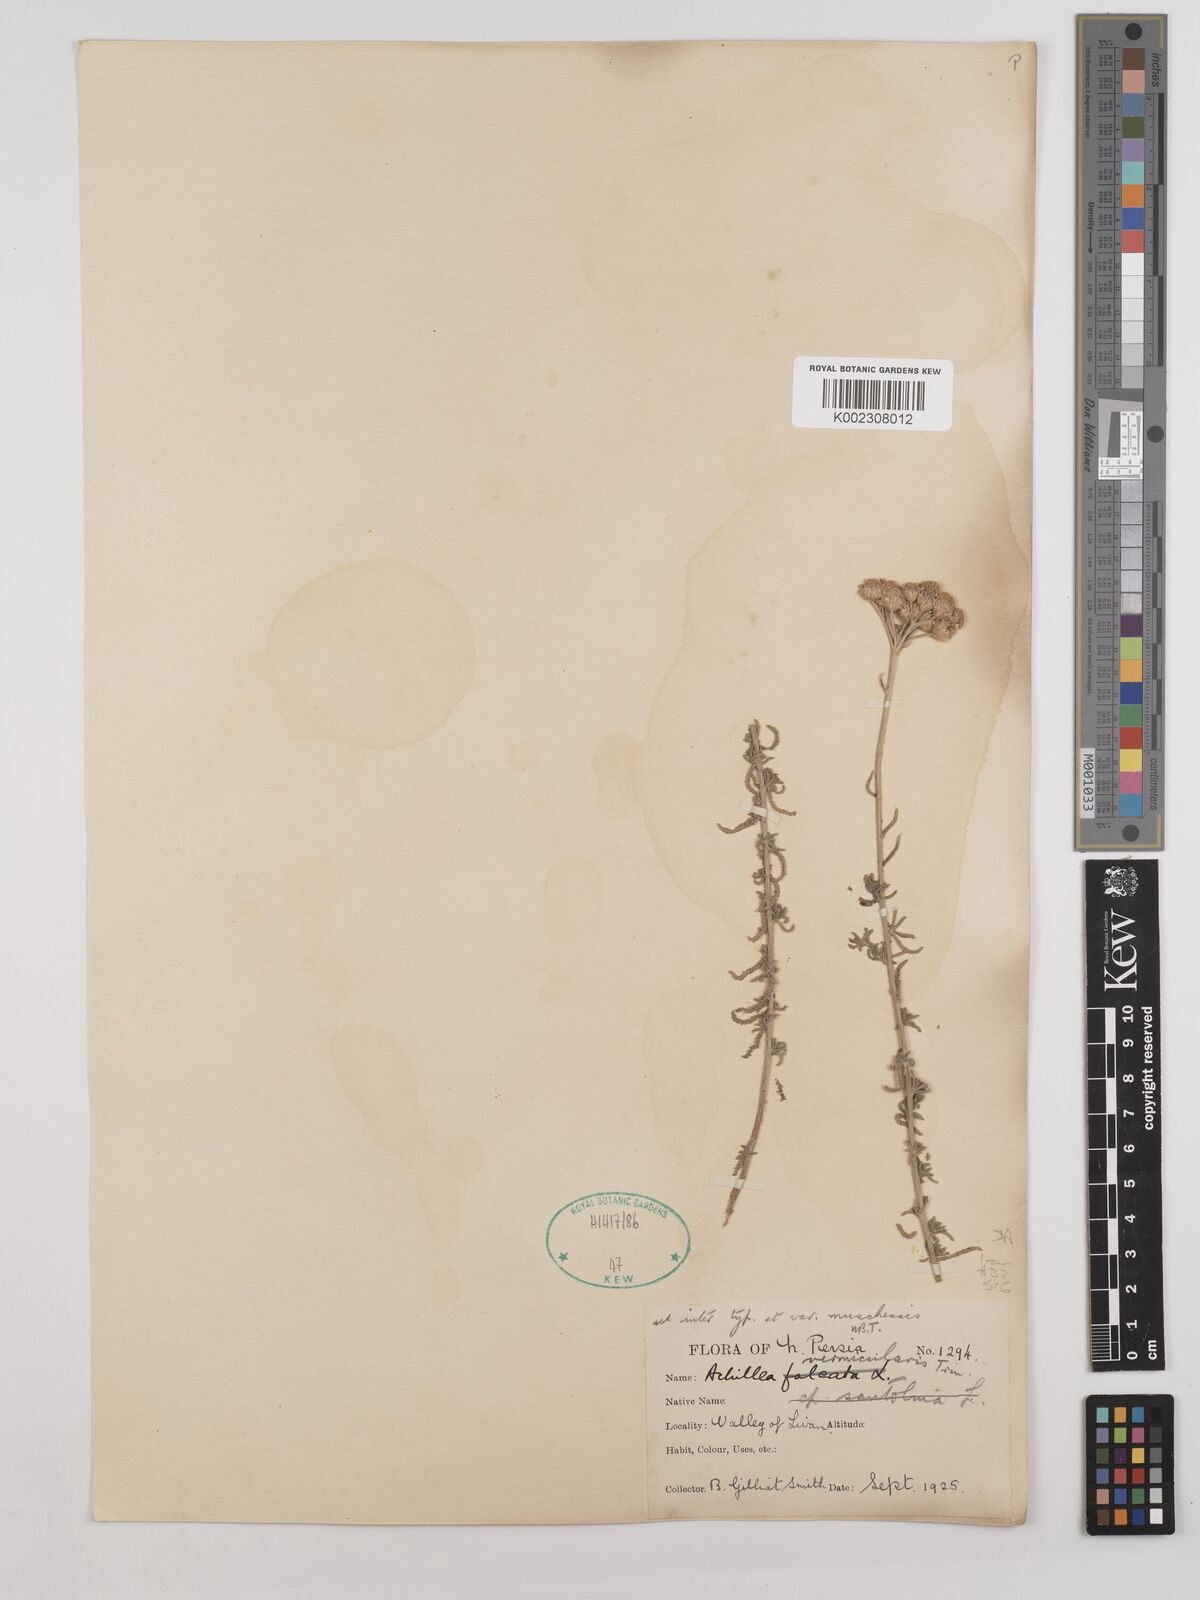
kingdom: Plantae
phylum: Tracheophyta
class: Magnoliopsida
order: Asterales
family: Asteraceae
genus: Achillea
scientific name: Achillea vermicularis
